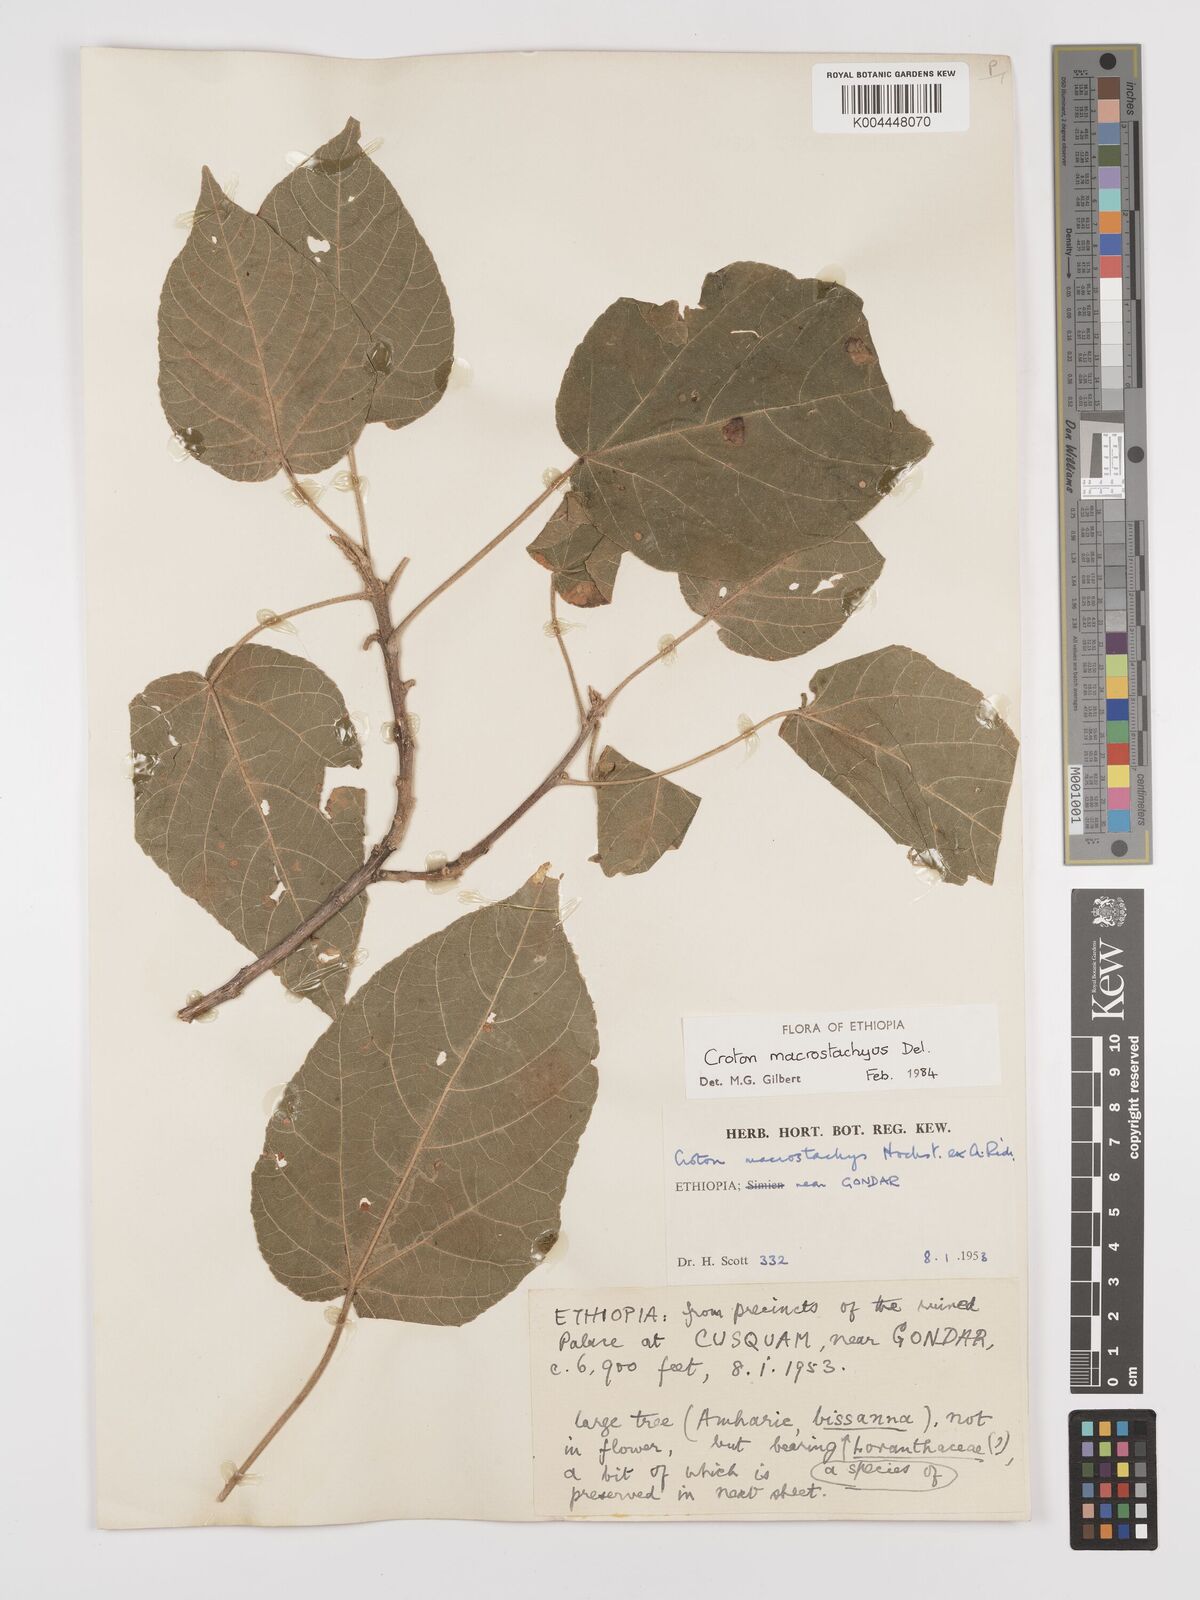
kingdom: Plantae
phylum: Tracheophyta
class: Magnoliopsida
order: Malpighiales
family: Euphorbiaceae
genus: Croton
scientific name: Croton macrostachyus
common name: Mutundu
